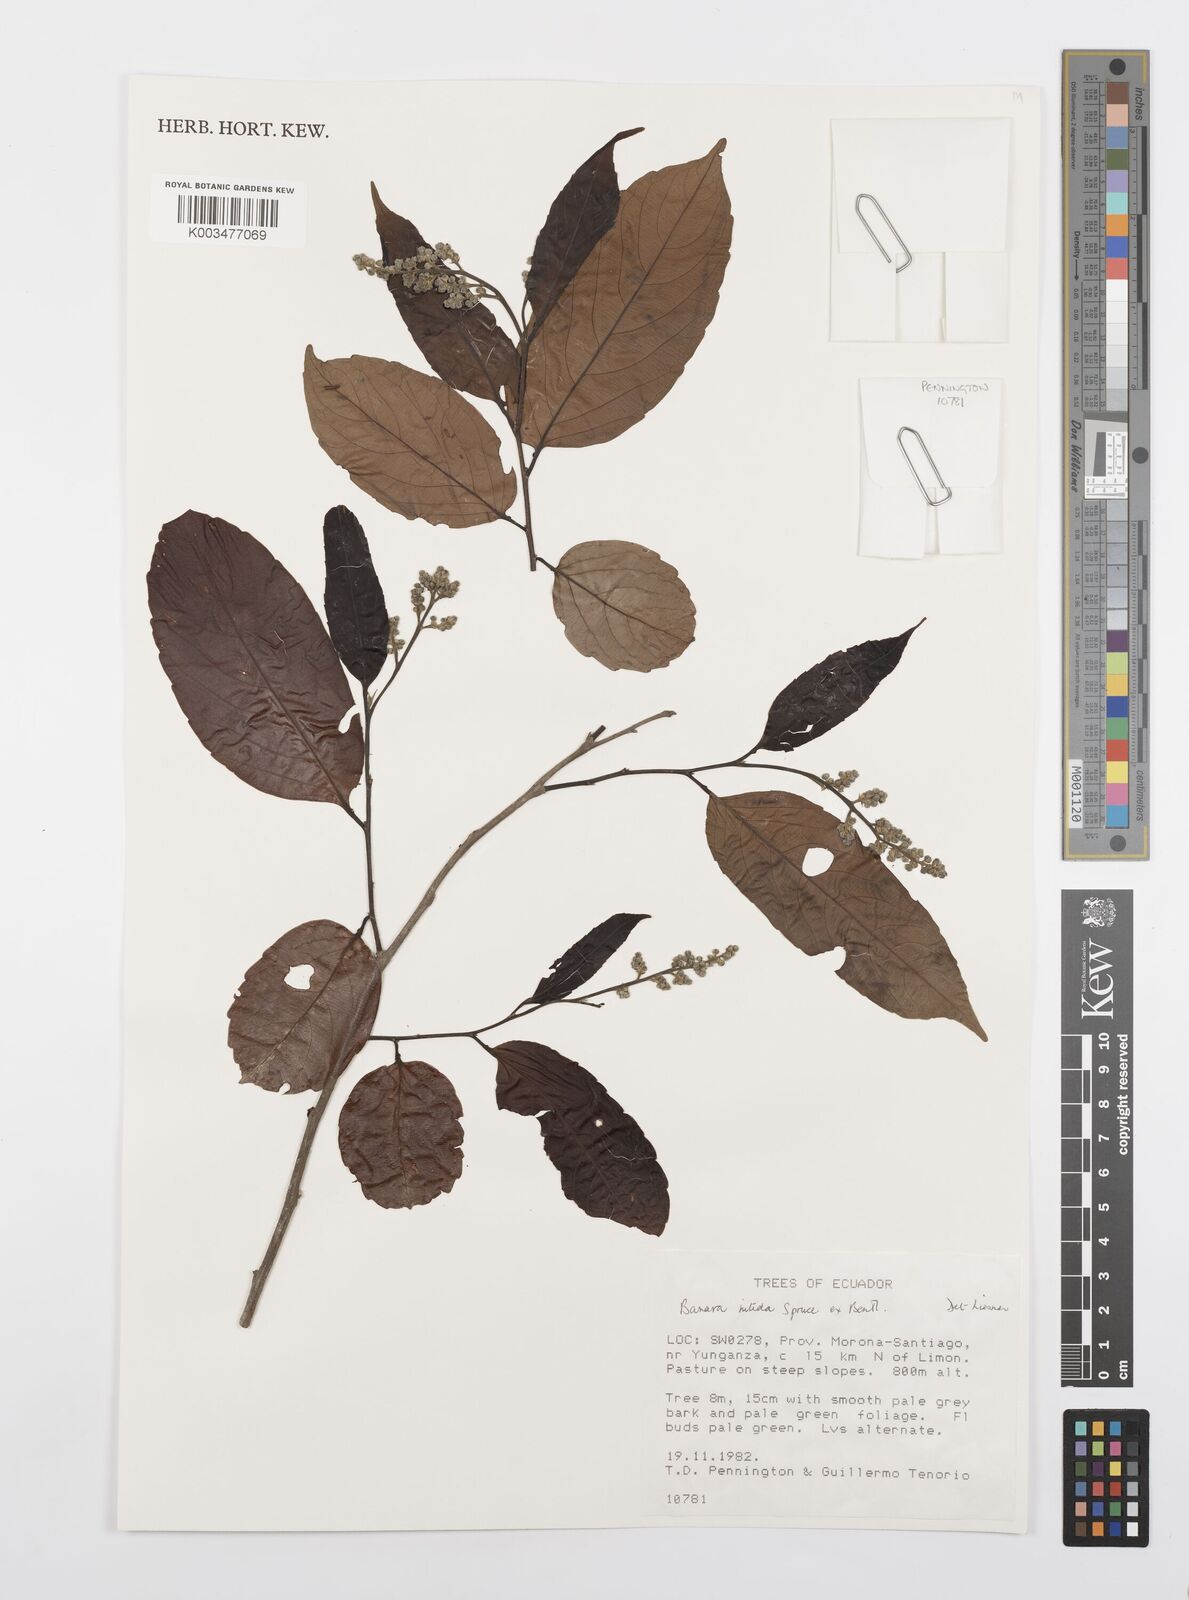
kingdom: Plantae
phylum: Tracheophyta
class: Magnoliopsida
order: Malpighiales
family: Salicaceae
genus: Banara
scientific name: Banara nitida
